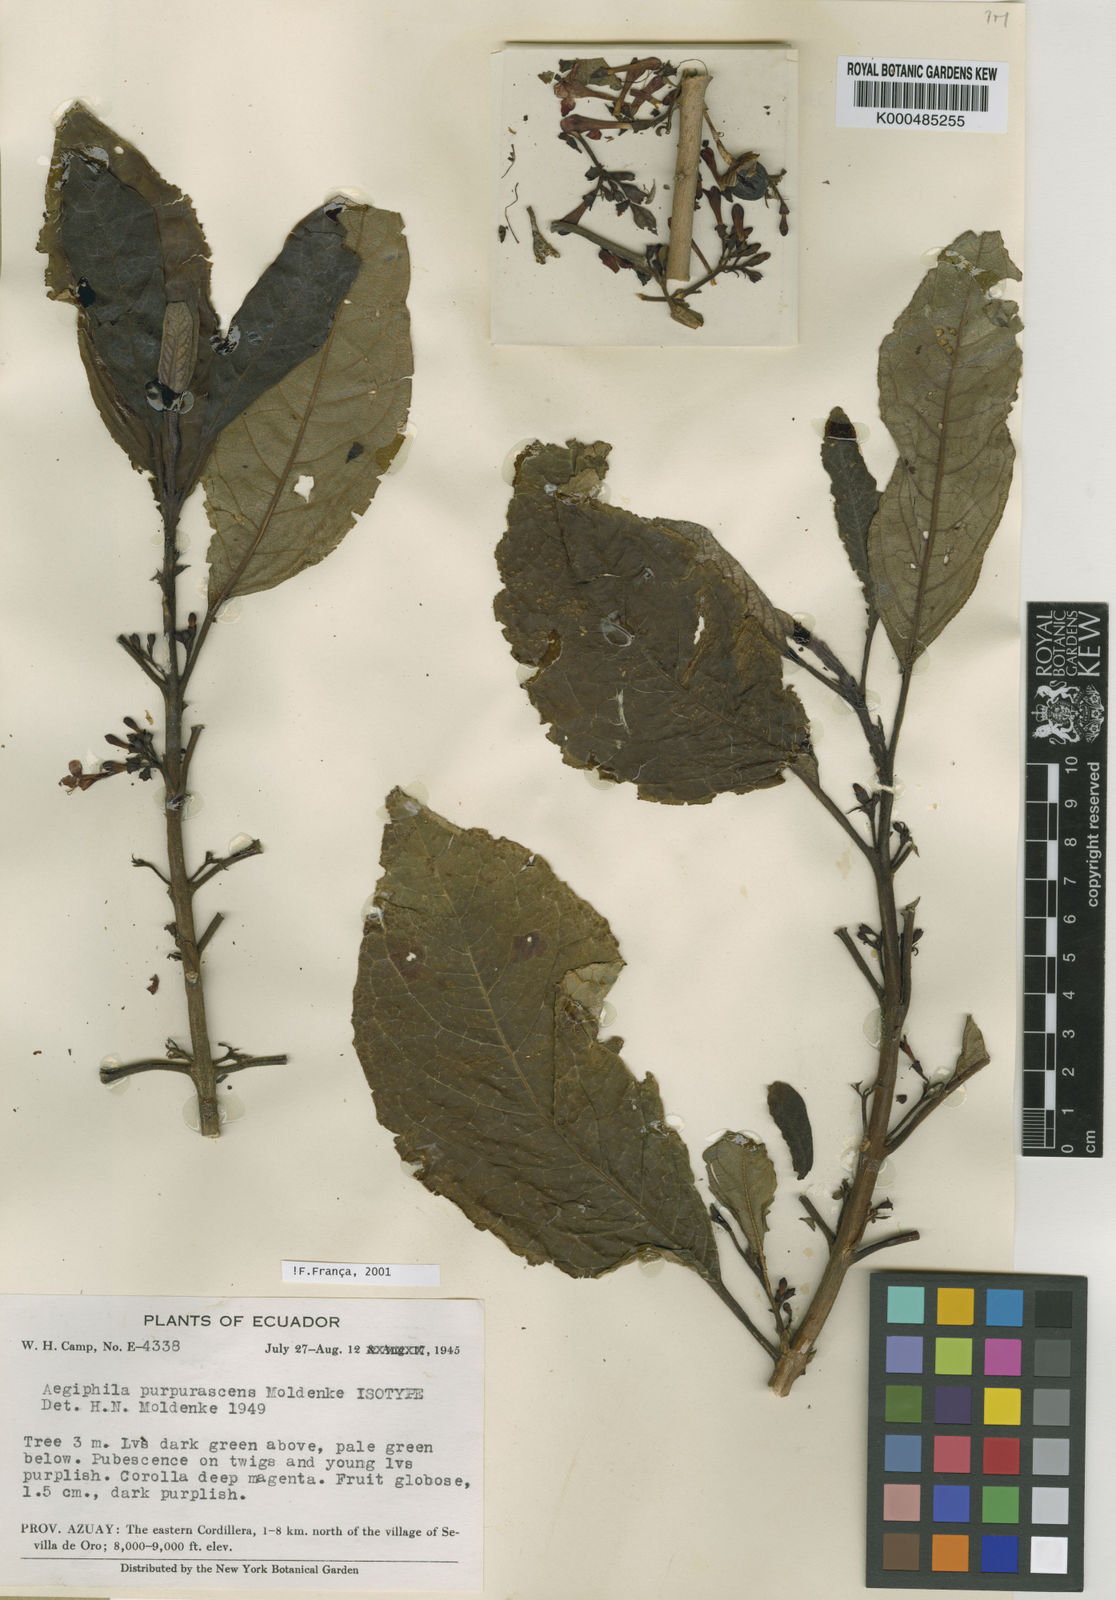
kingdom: Plantae
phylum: Tracheophyta
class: Magnoliopsida
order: Lamiales
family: Lamiaceae
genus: Aegiphila
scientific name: Aegiphila purpurascens
